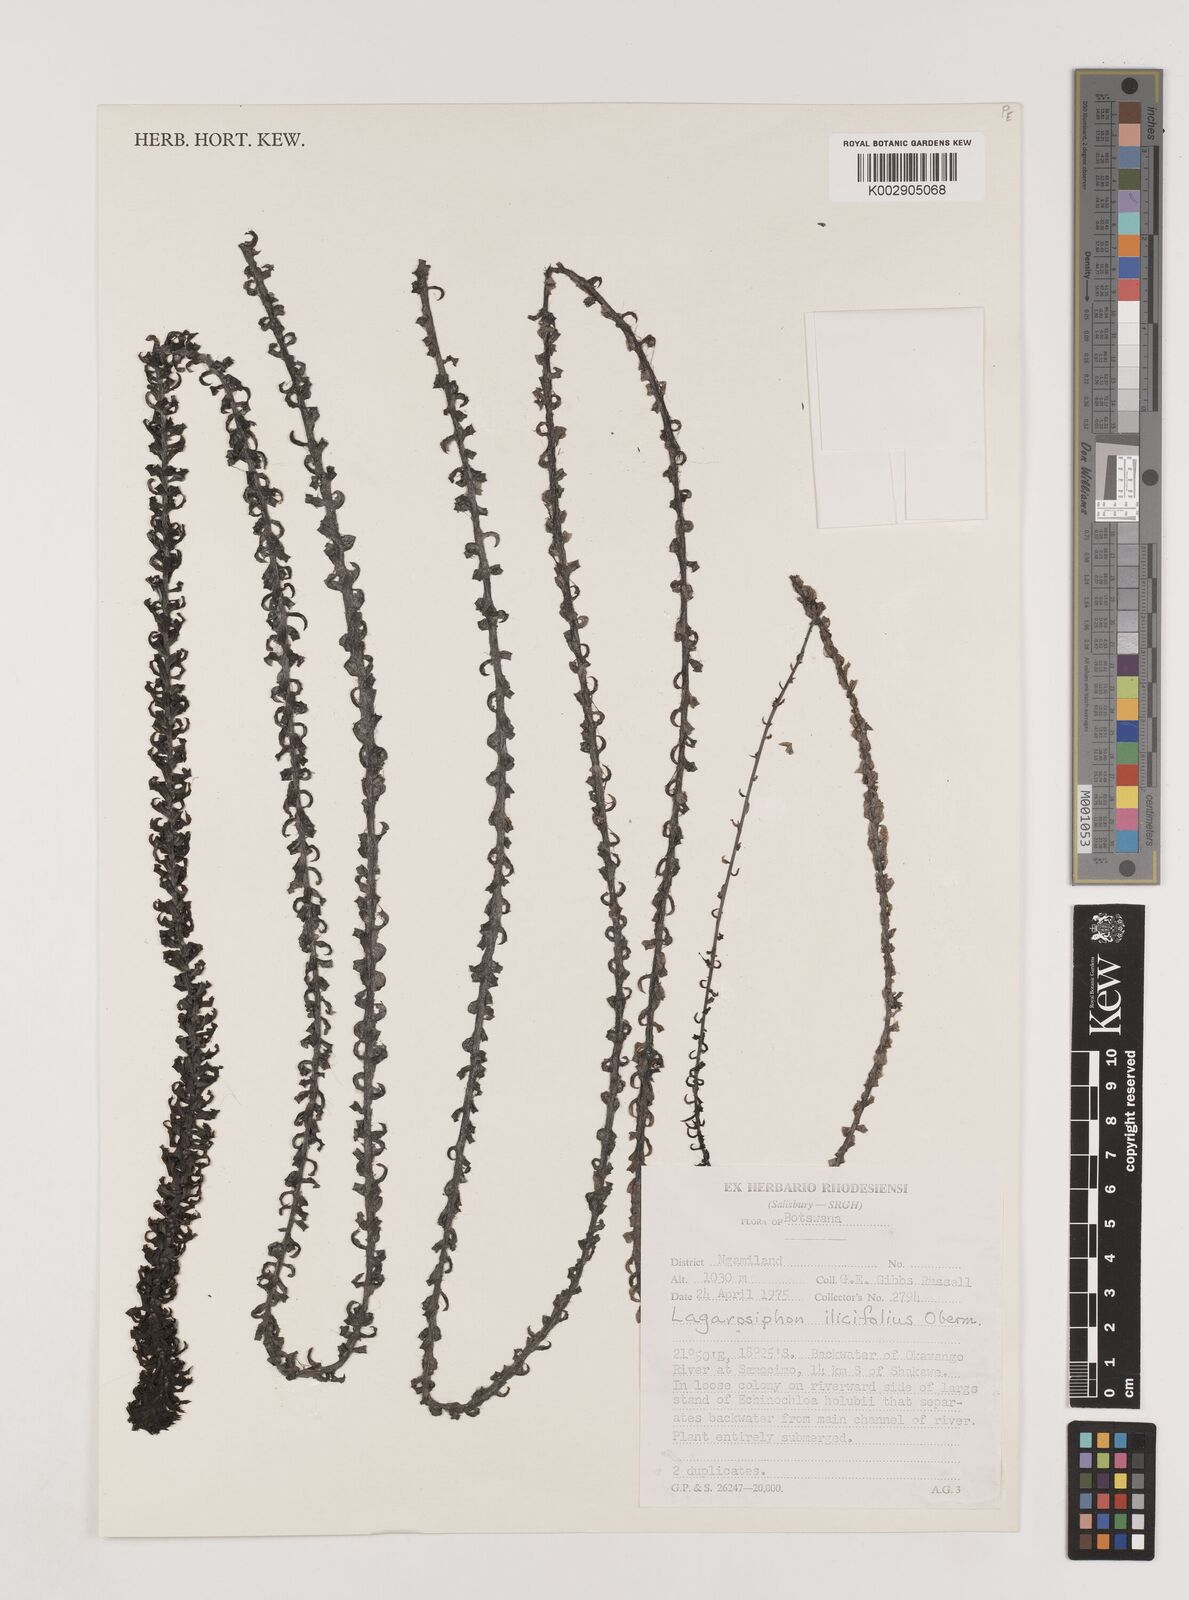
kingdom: Plantae
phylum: Tracheophyta
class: Liliopsida
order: Alismatales
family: Hydrocharitaceae
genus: Lagarosiphon
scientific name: Lagarosiphon ilicifolius
